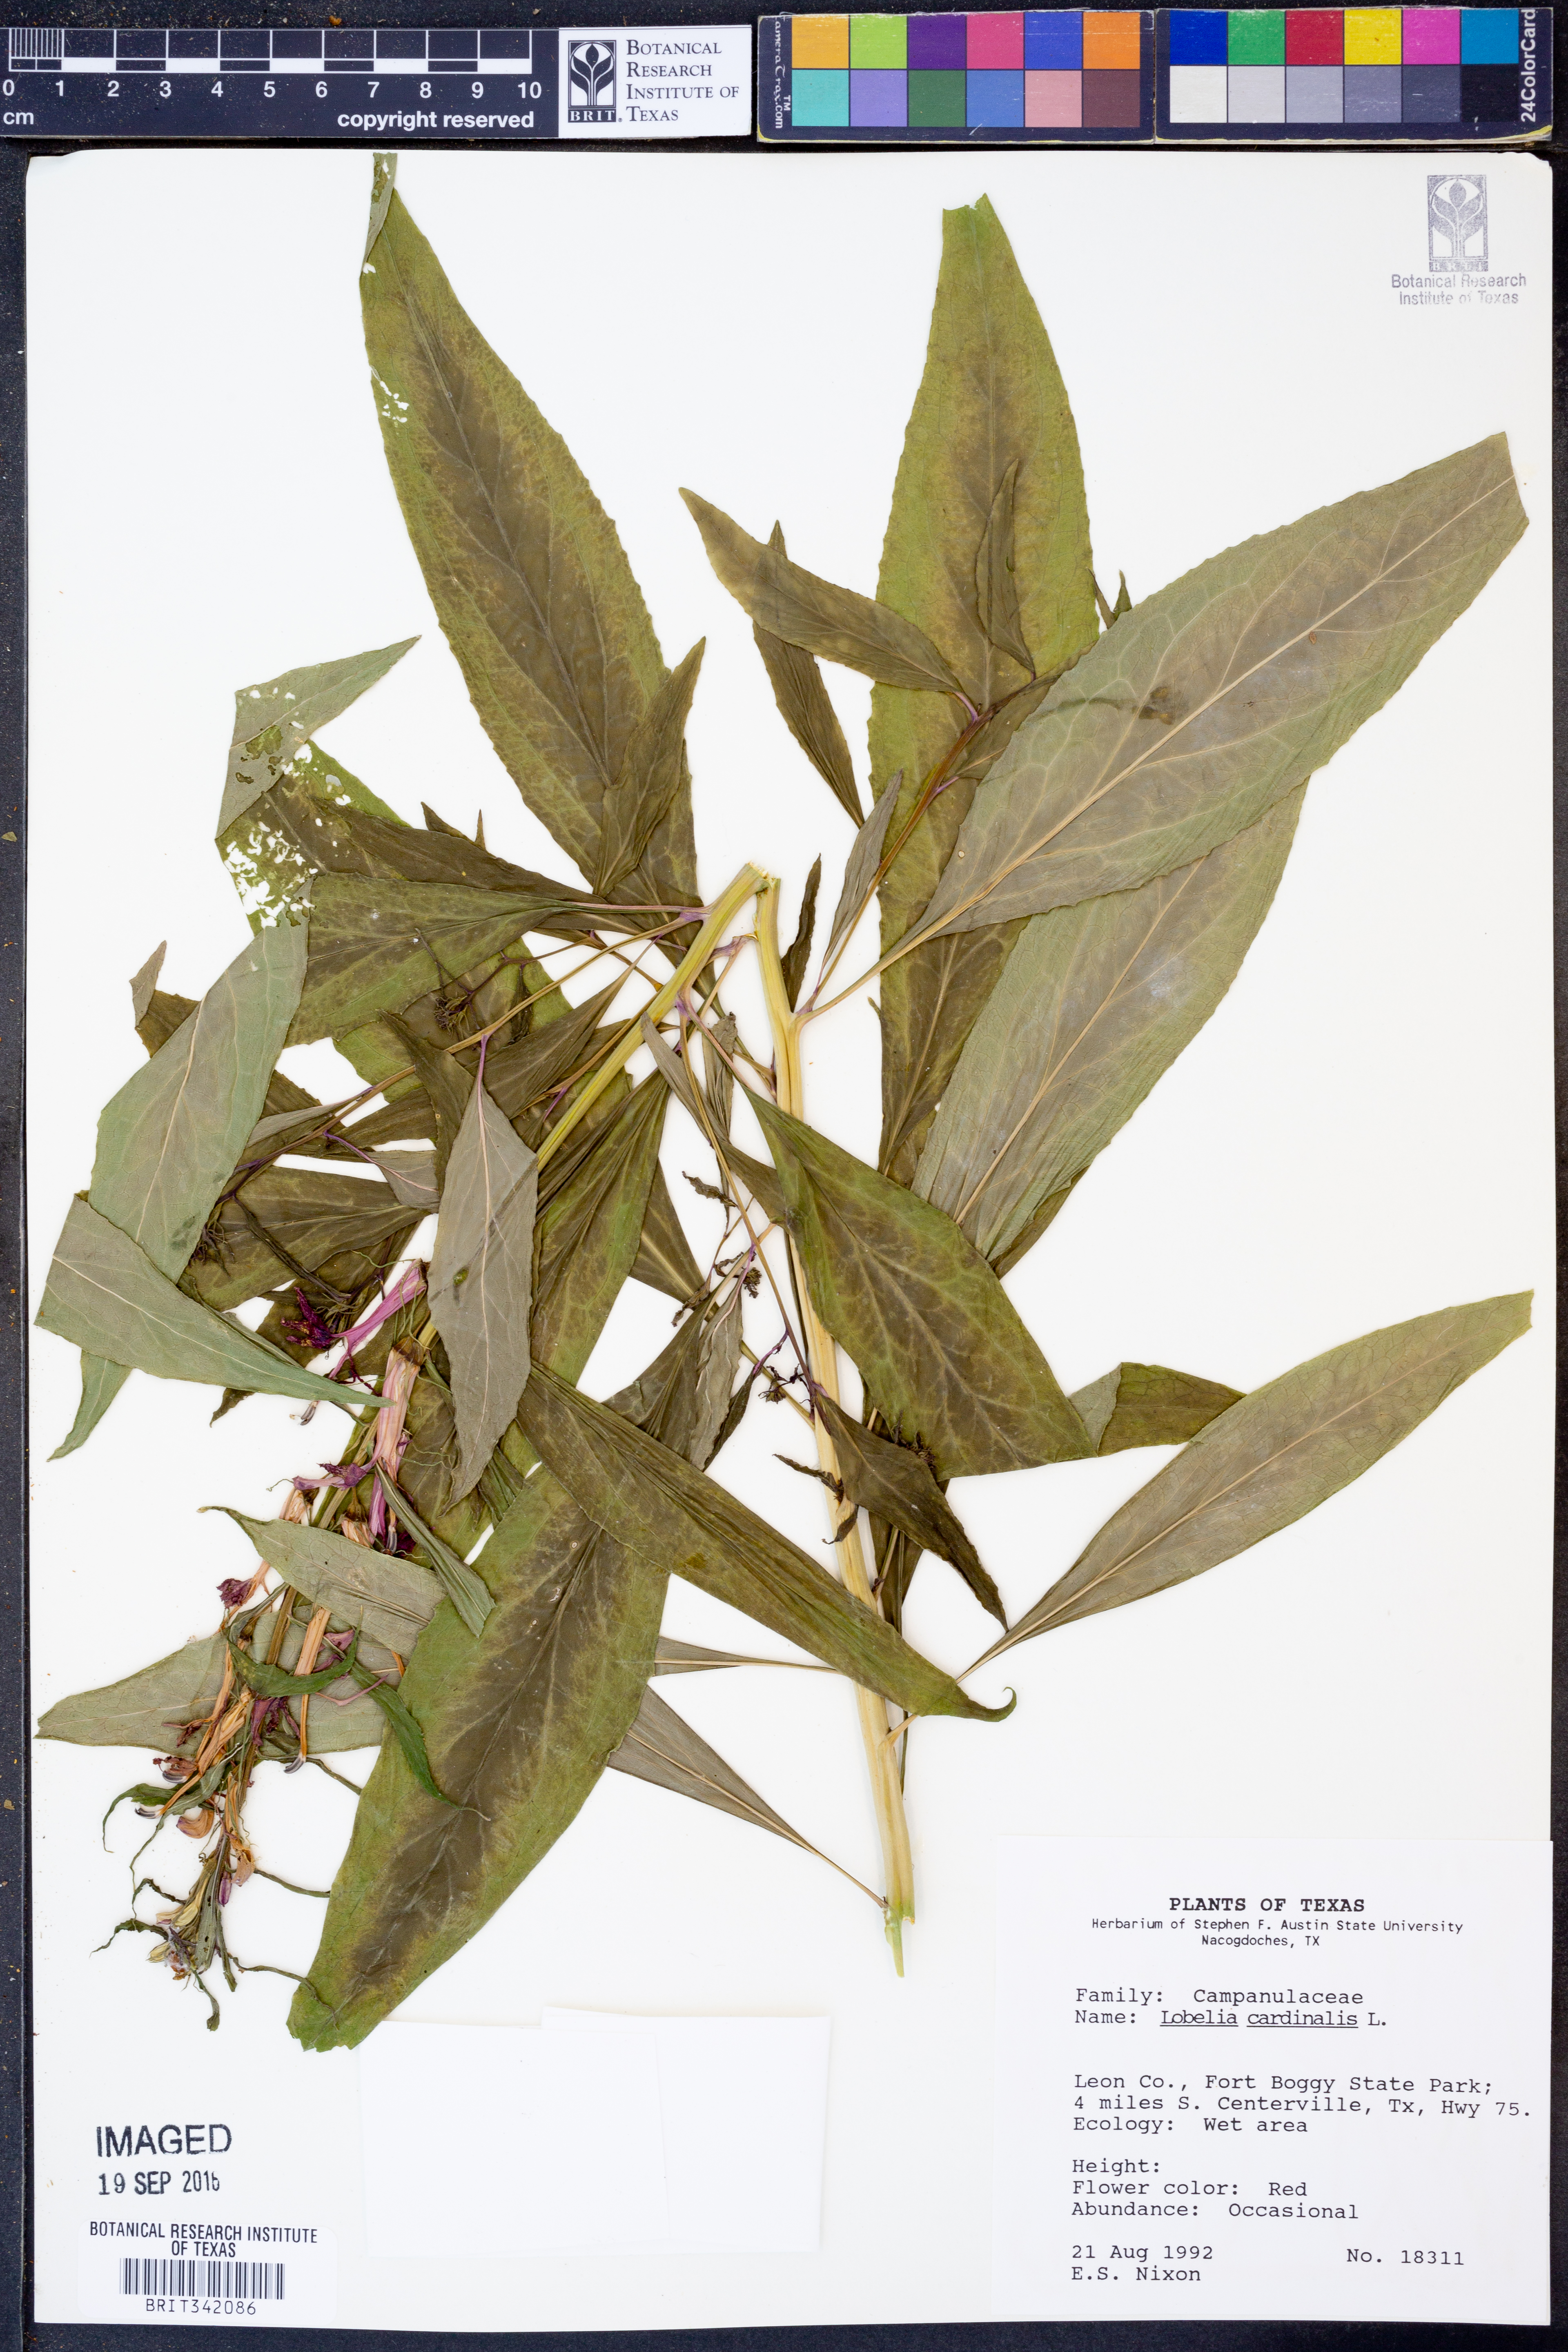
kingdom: Plantae
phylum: Tracheophyta
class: Magnoliopsida
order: Asterales
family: Campanulaceae
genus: Lobelia
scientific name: Lobelia cardinalis
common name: Cardinal flower
